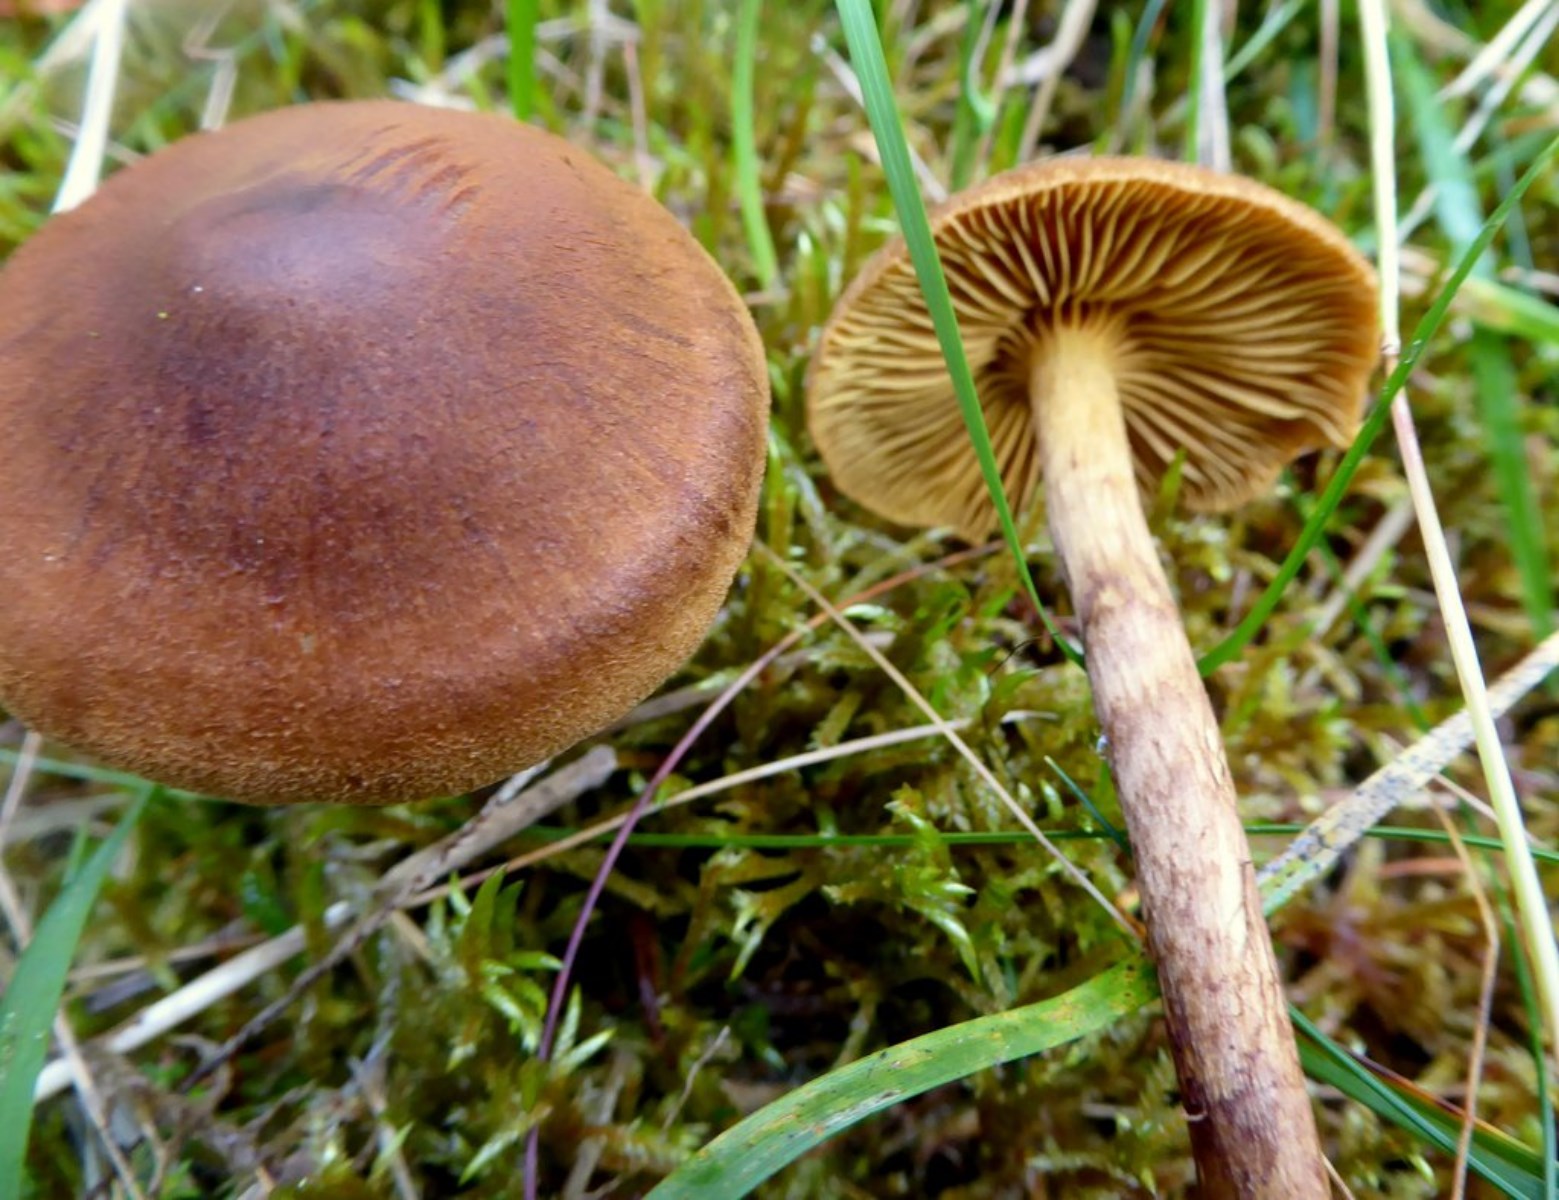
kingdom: Fungi
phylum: Basidiomycota
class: Agaricomycetes
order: Agaricales
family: Cortinariaceae
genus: Cortinarius
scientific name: Cortinarius
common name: gulbladet slørhat
